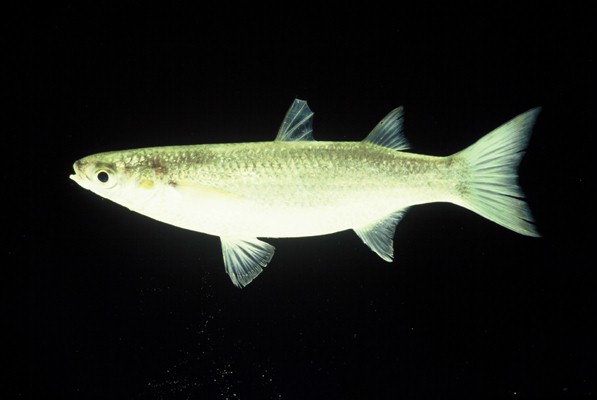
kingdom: Animalia
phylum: Chordata
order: Mugiliformes
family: Mugilidae
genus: Chelon
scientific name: Chelon dumerili
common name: Groovy mullet
